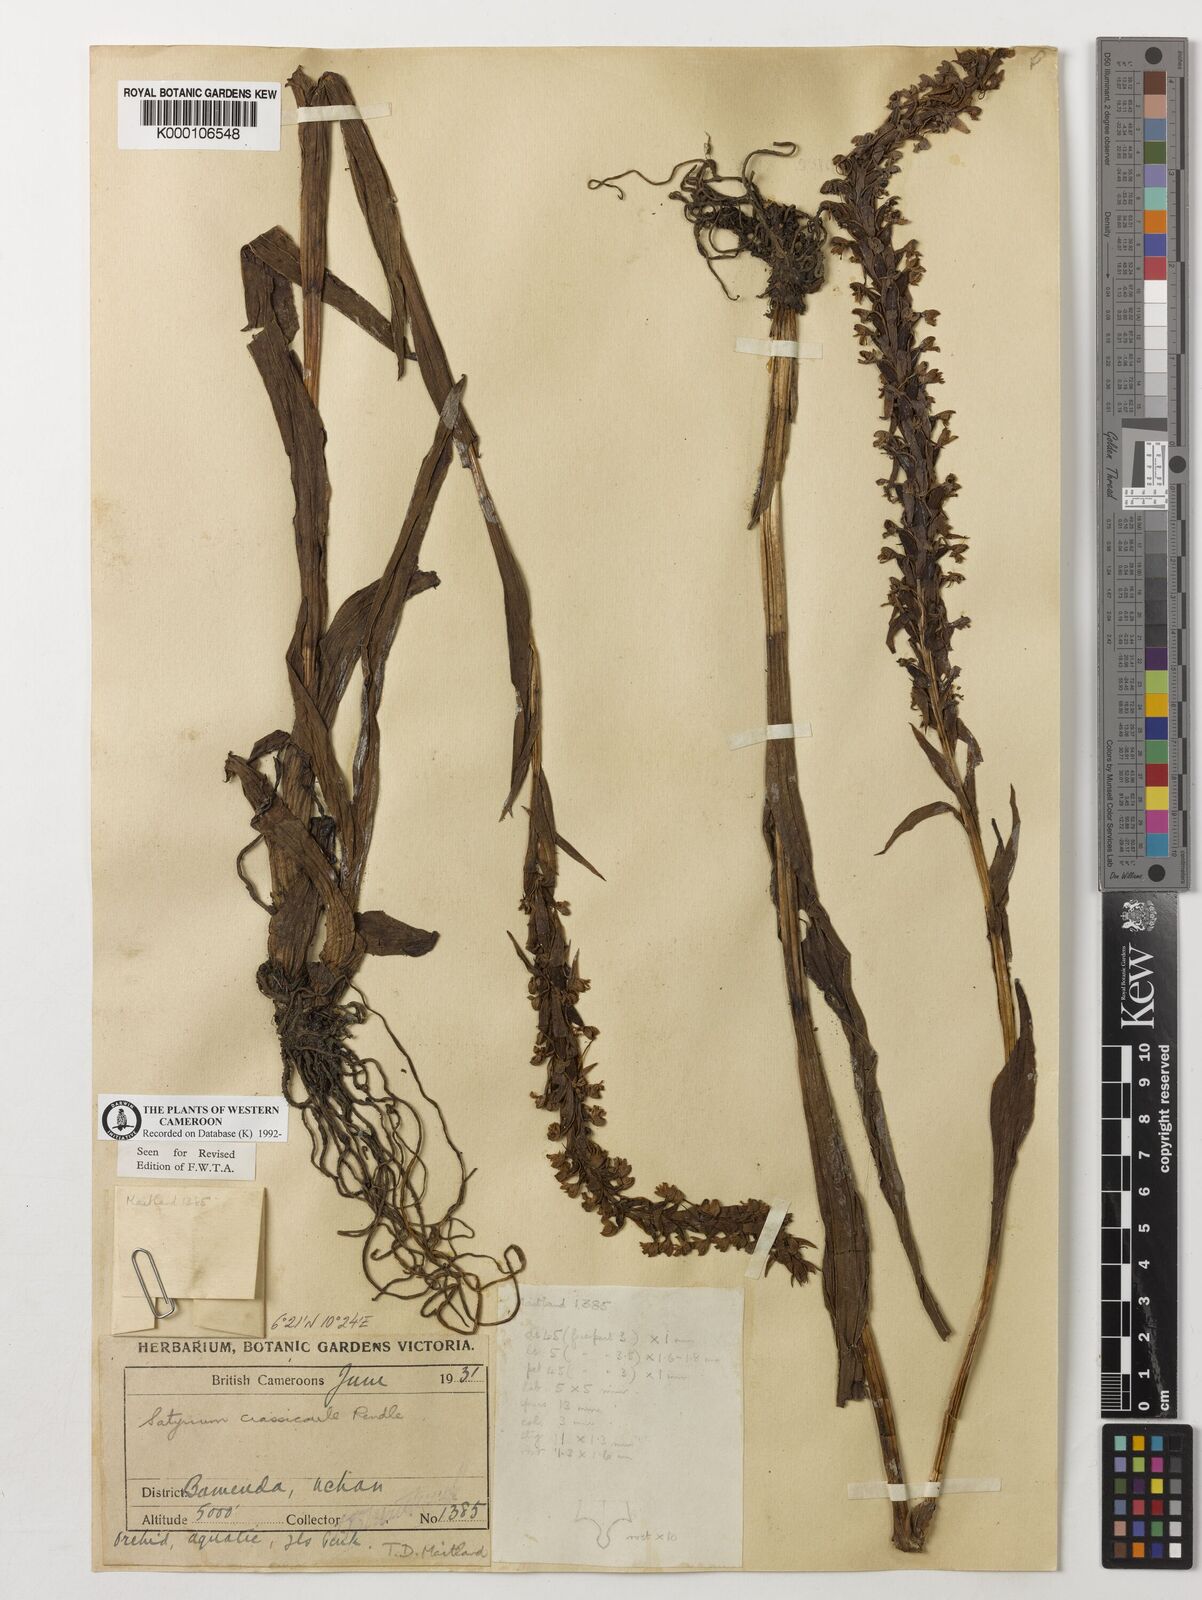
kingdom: Plantae
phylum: Tracheophyta
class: Liliopsida
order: Asparagales
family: Orchidaceae
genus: Satyrium
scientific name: Satyrium crassicaule
